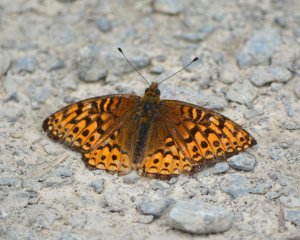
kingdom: Animalia
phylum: Arthropoda
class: Insecta
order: Lepidoptera
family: Nymphalidae
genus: Speyeria
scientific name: Speyeria atlantis
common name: Atlantis Fritillary
